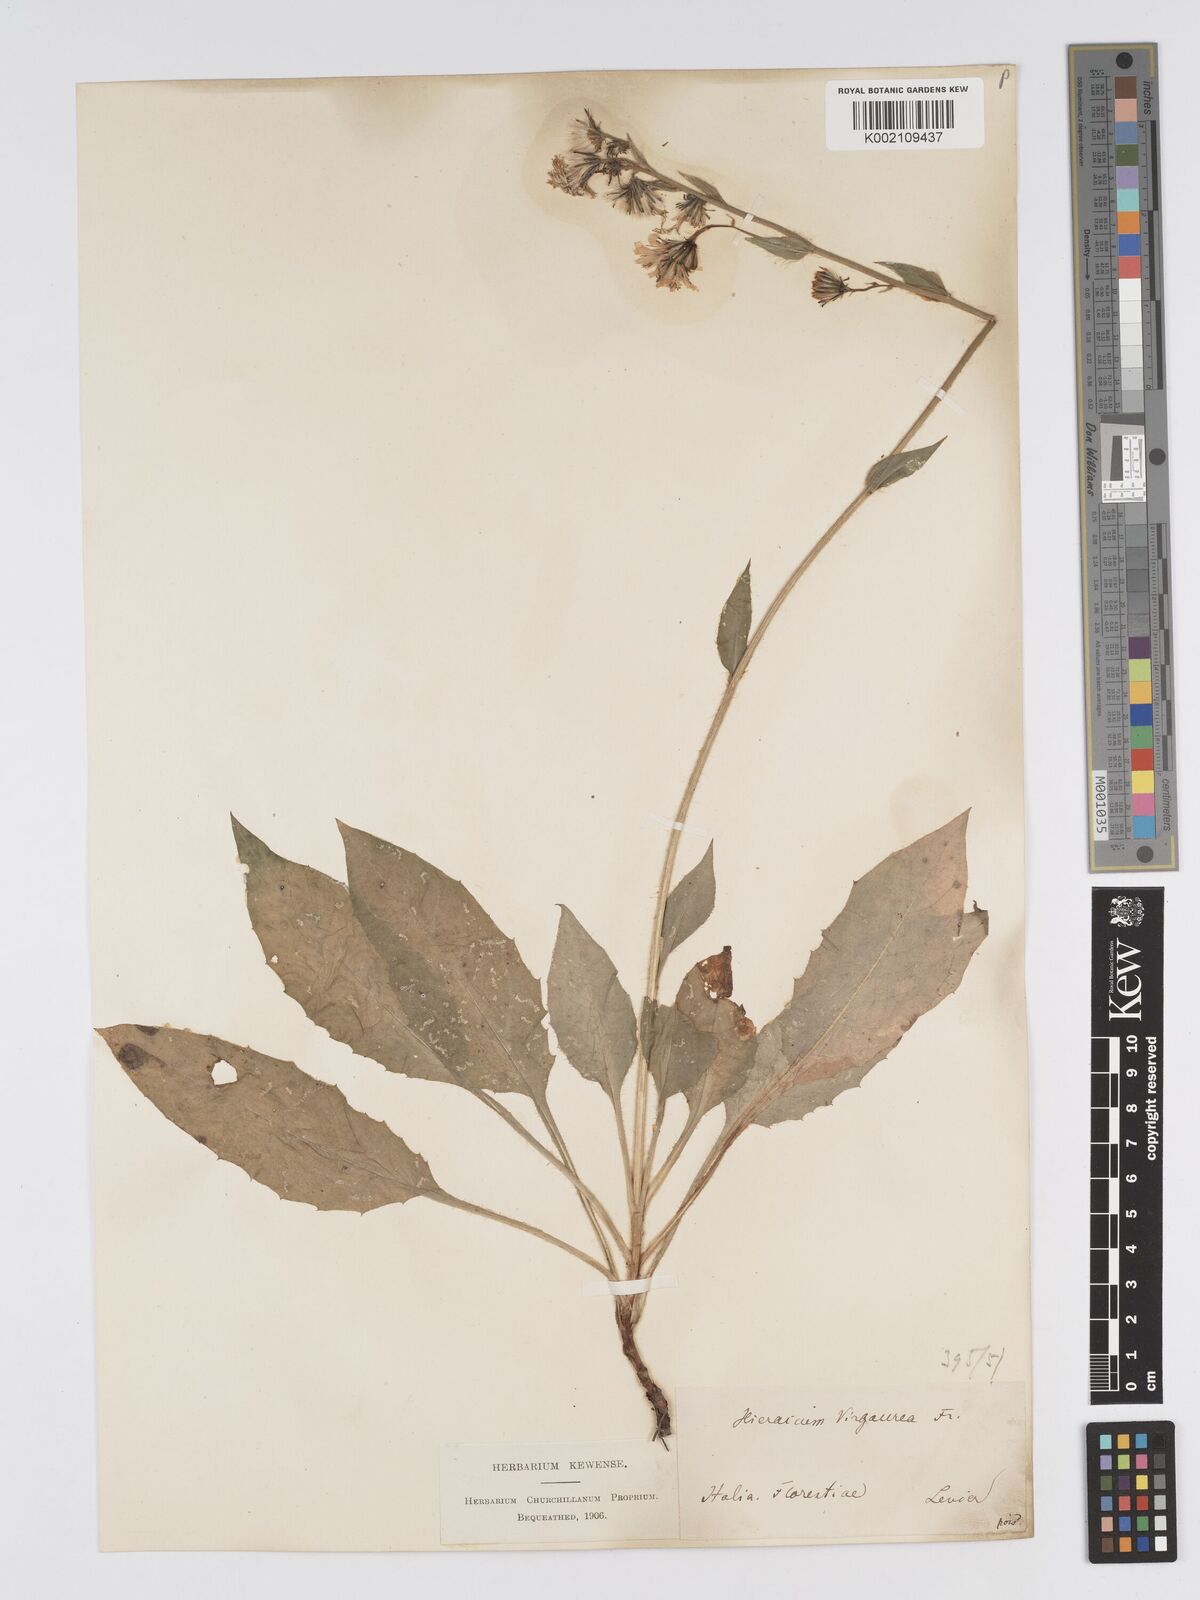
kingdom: Plantae
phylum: Tracheophyta
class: Magnoliopsida
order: Asterales
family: Asteraceae
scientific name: Asteraceae
